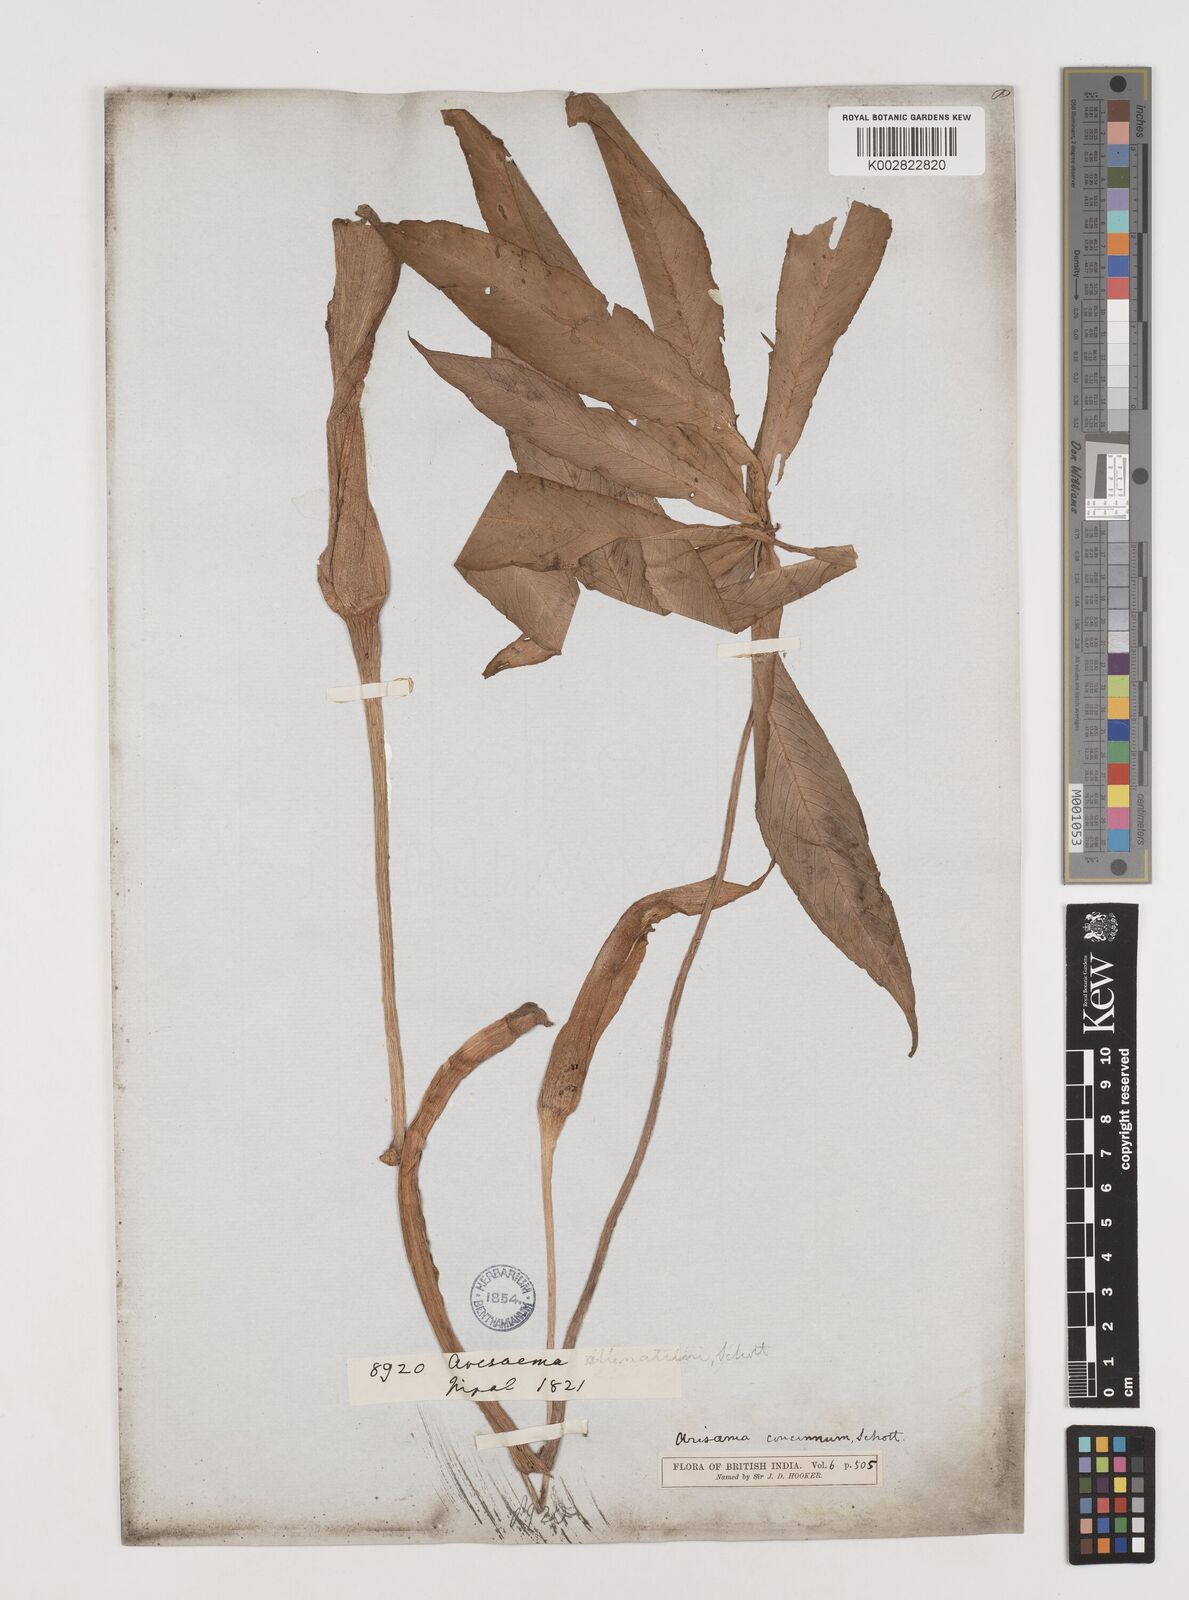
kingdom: Plantae
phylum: Tracheophyta
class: Liliopsida
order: Alismatales
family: Araceae
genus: Arisaema
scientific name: Arisaema concinnum
